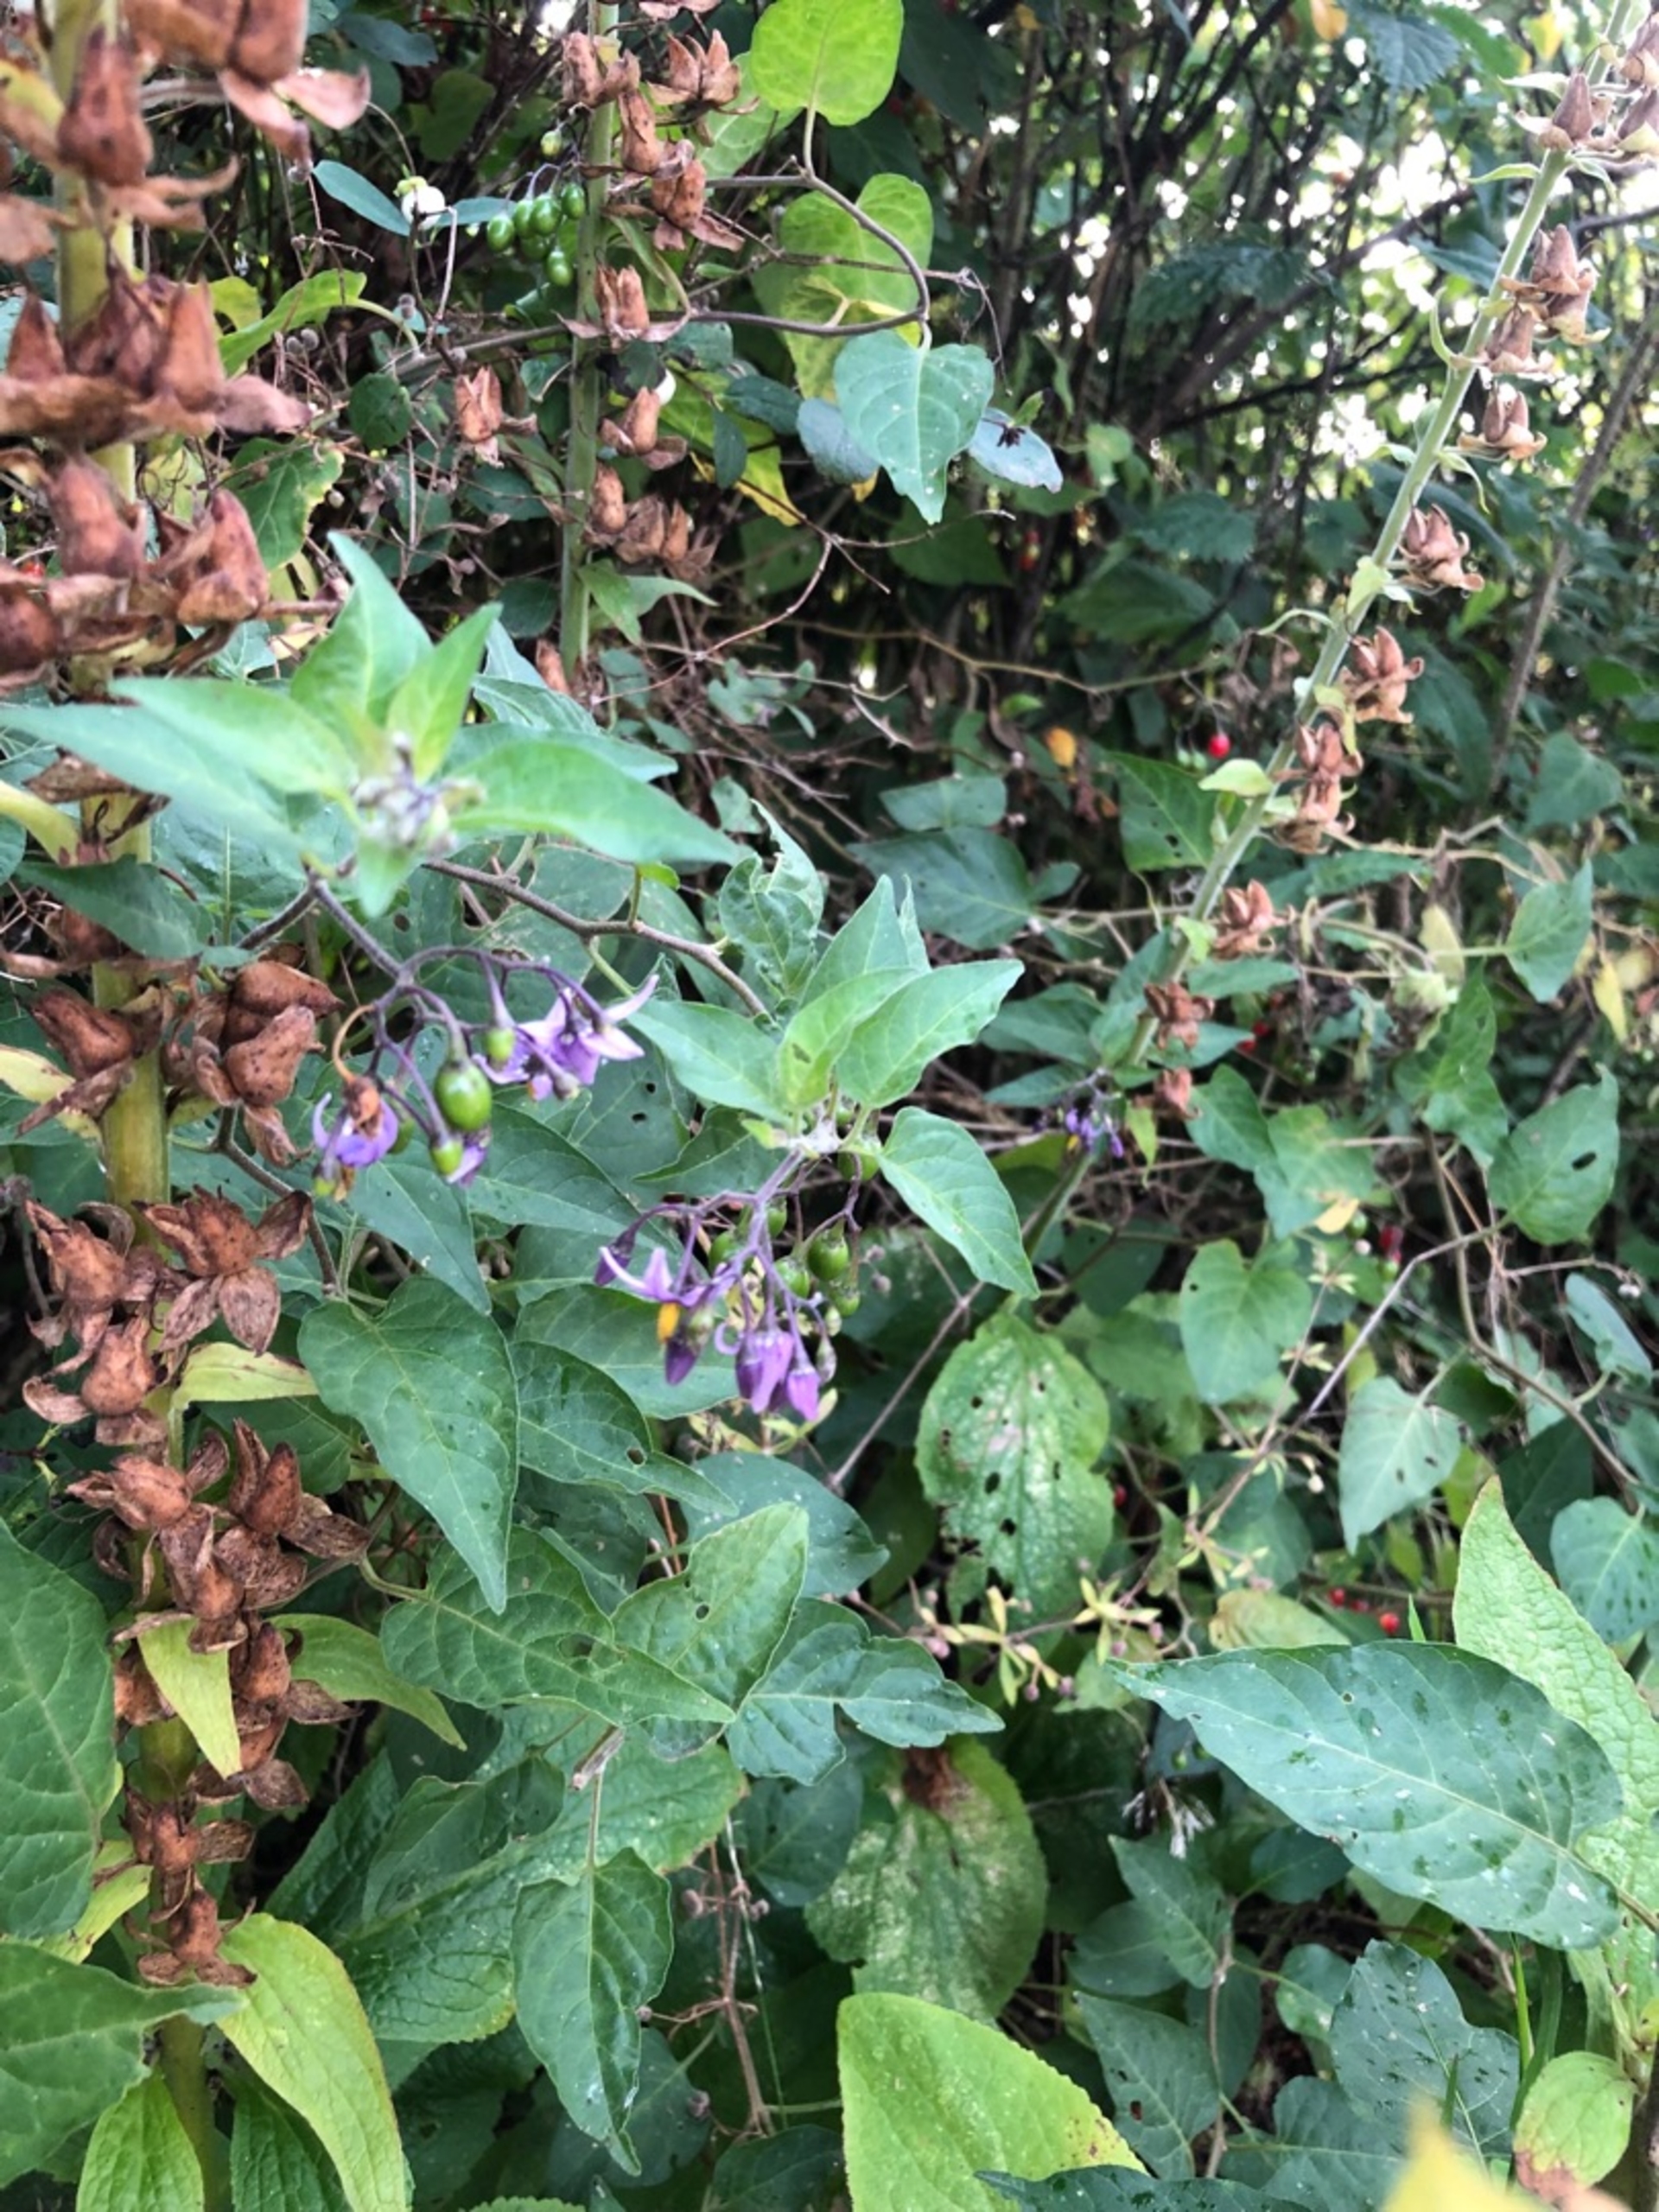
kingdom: Plantae
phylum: Tracheophyta
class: Magnoliopsida
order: Solanales
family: Solanaceae
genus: Solanum
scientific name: Solanum dulcamara
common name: Bittersød natskygge
